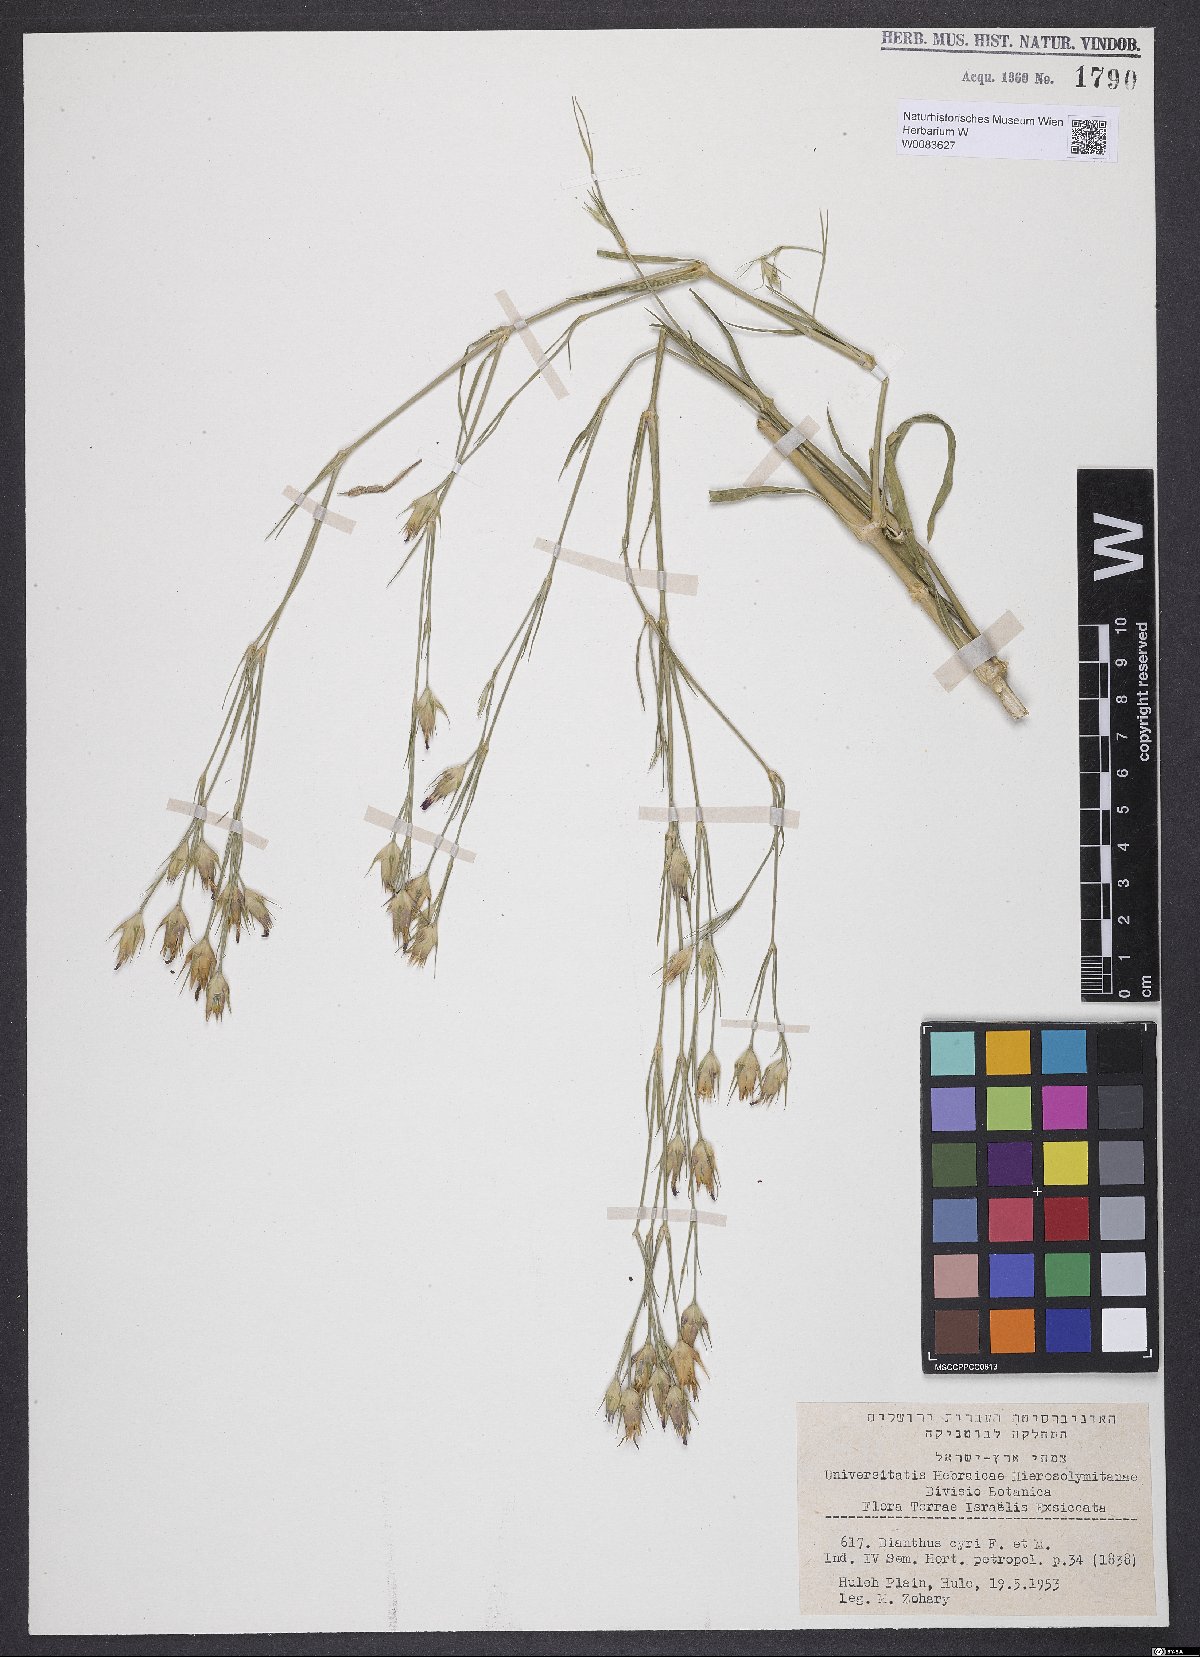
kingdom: Plantae
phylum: Tracheophyta
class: Magnoliopsida
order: Caryophyllales
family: Caryophyllaceae
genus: Dianthus
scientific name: Dianthus cyri
